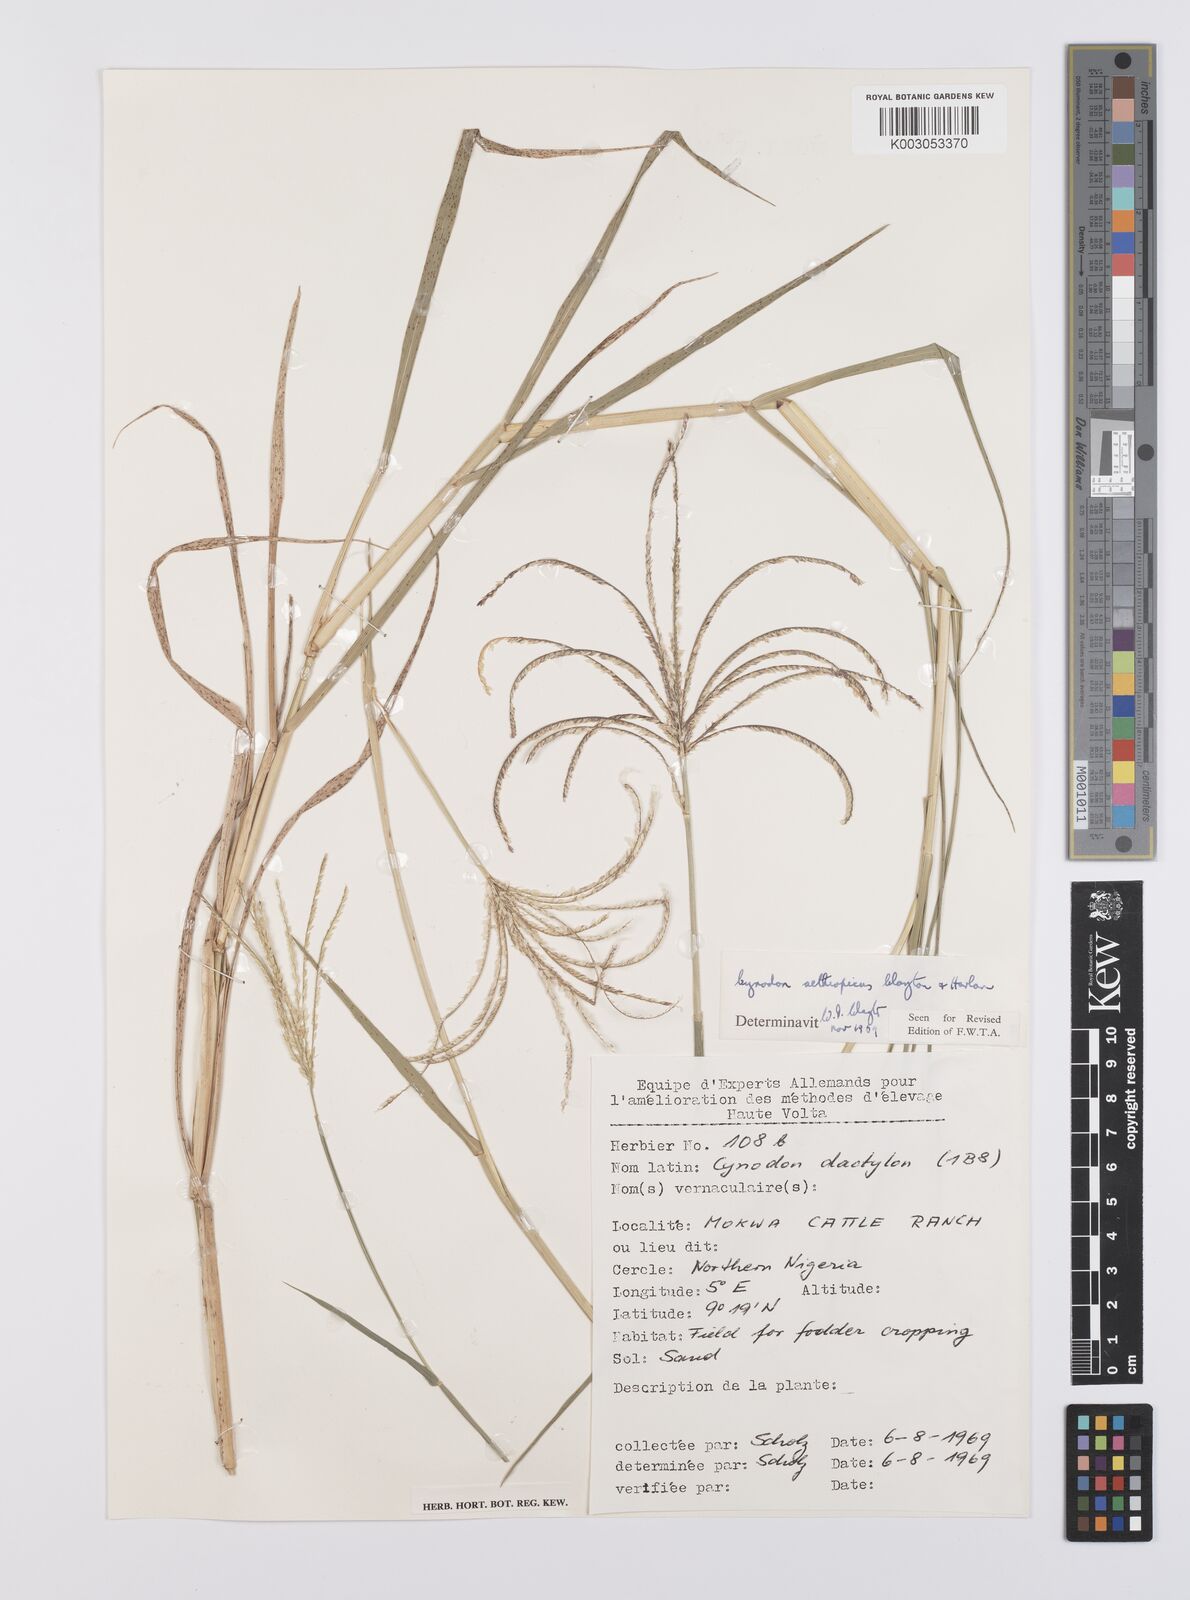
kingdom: Plantae
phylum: Tracheophyta
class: Liliopsida
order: Poales
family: Poaceae
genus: Cynodon
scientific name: Cynodon aethiopicus
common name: Ethiopian dogstooth grass
